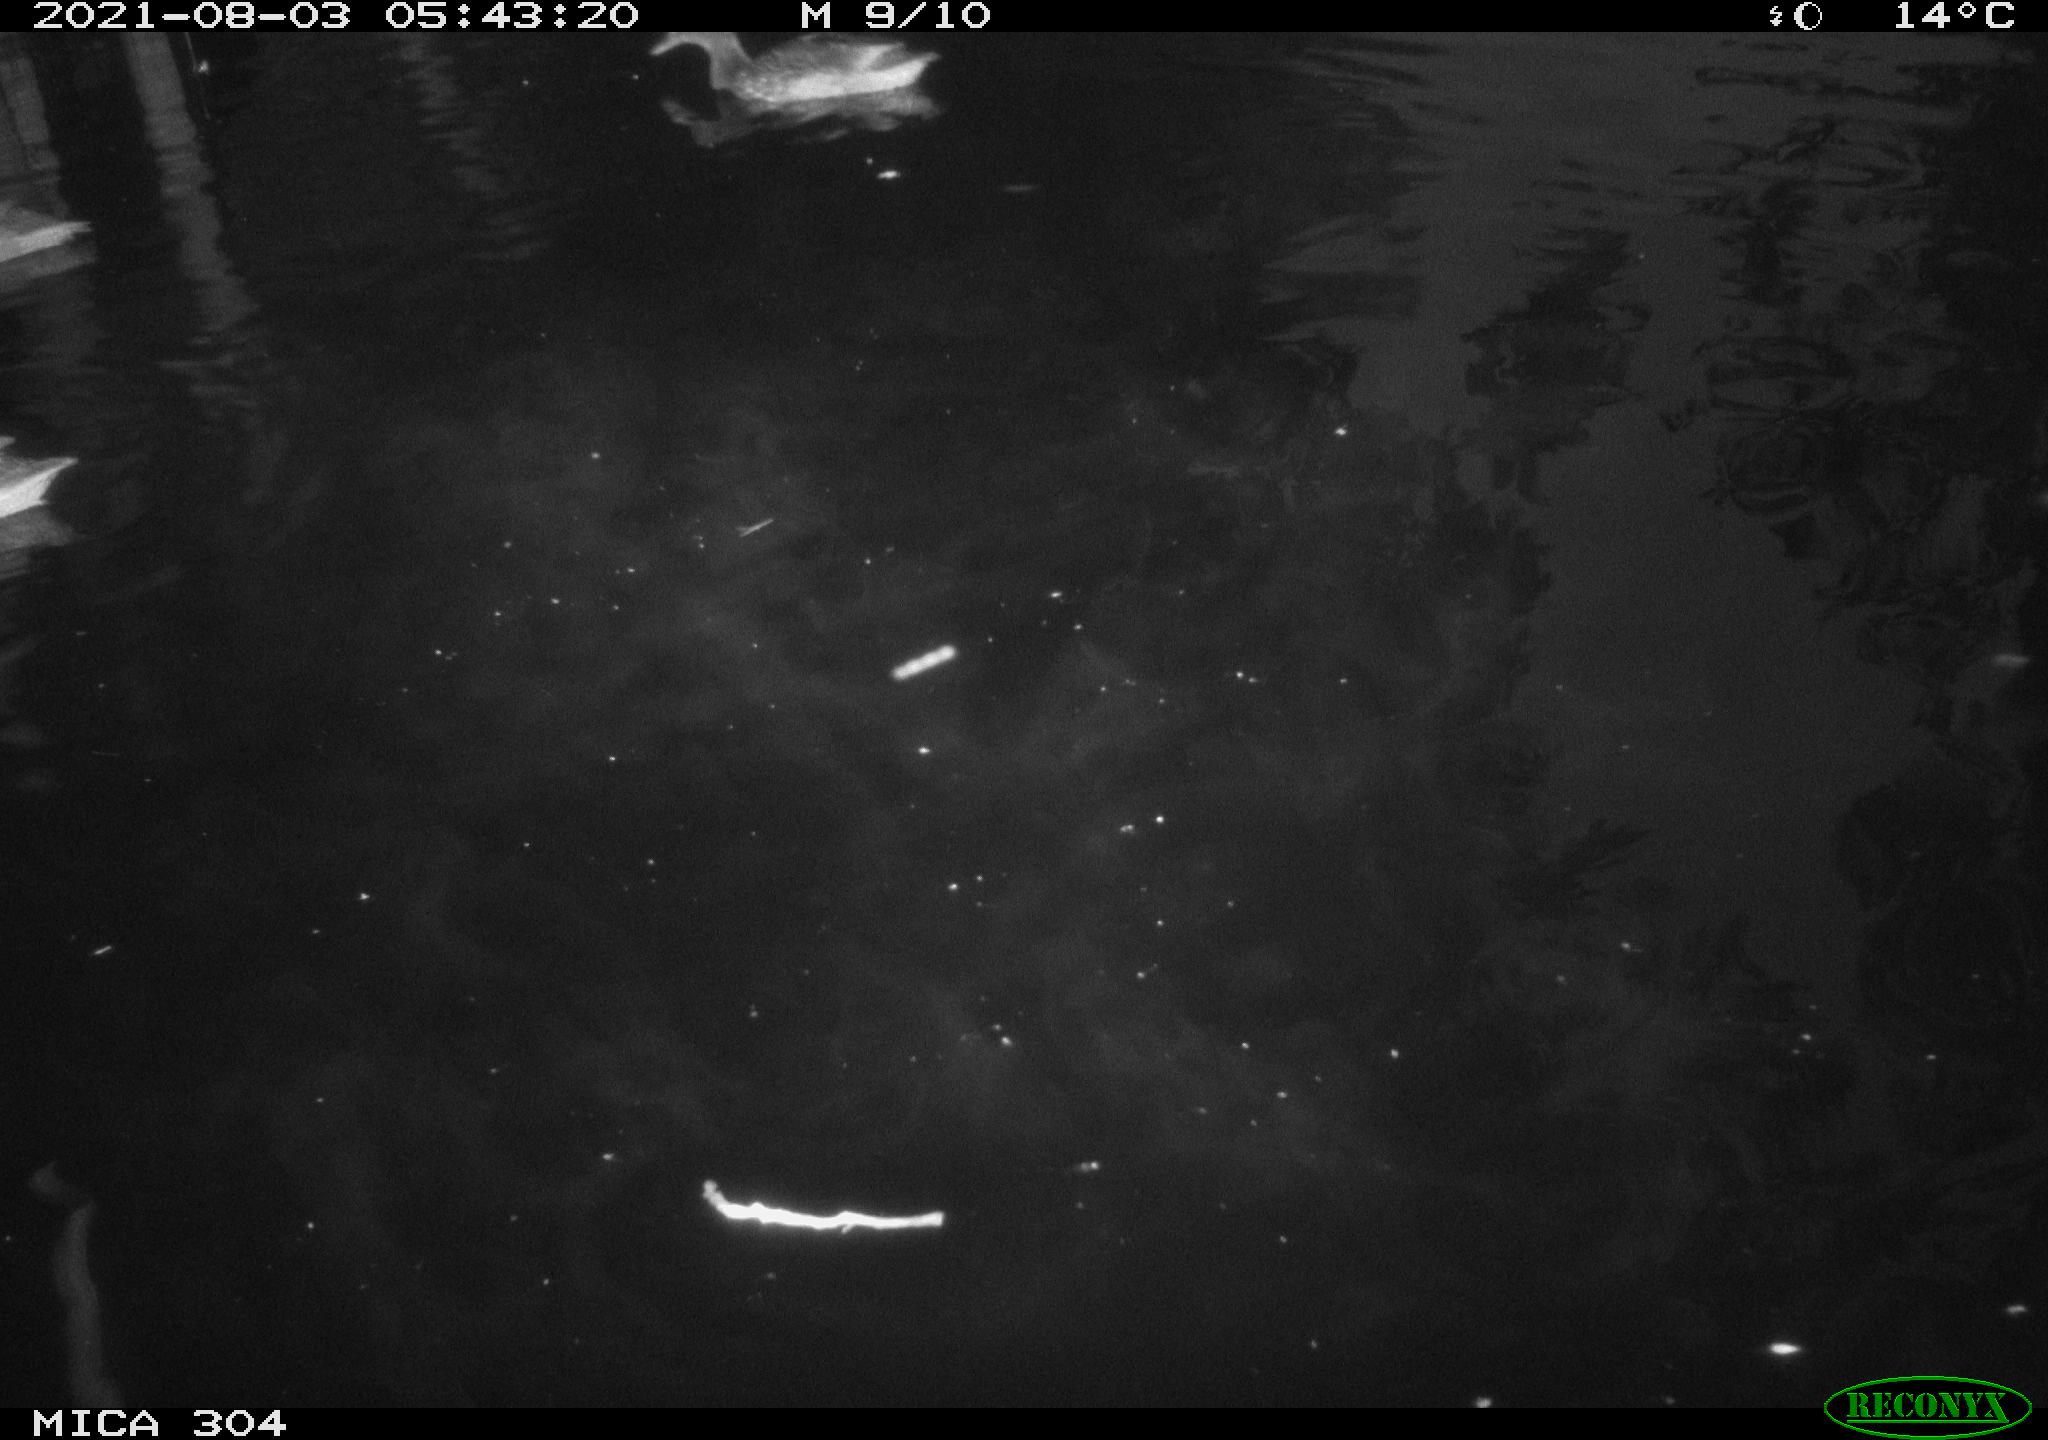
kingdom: Animalia
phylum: Chordata
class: Aves
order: Anseriformes
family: Anatidae
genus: Mareca
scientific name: Mareca strepera
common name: Gadwall
